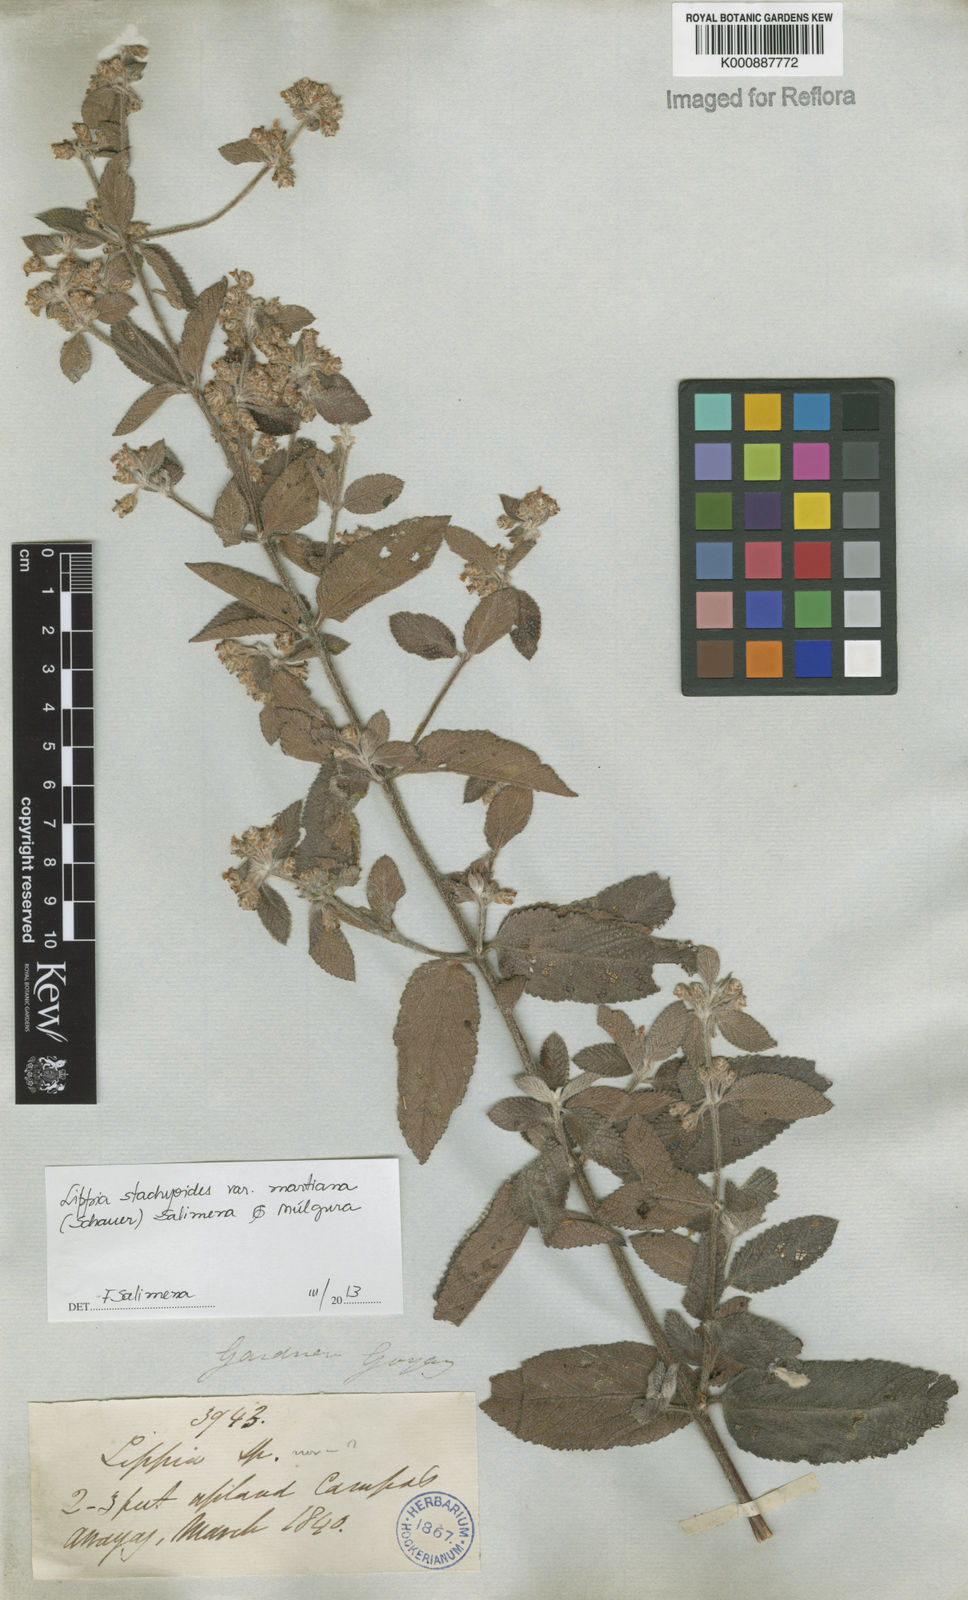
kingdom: Plantae
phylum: Tracheophyta
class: Magnoliopsida
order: Lamiales
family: Verbenaceae
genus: Lippia
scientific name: Lippia stachyoides
